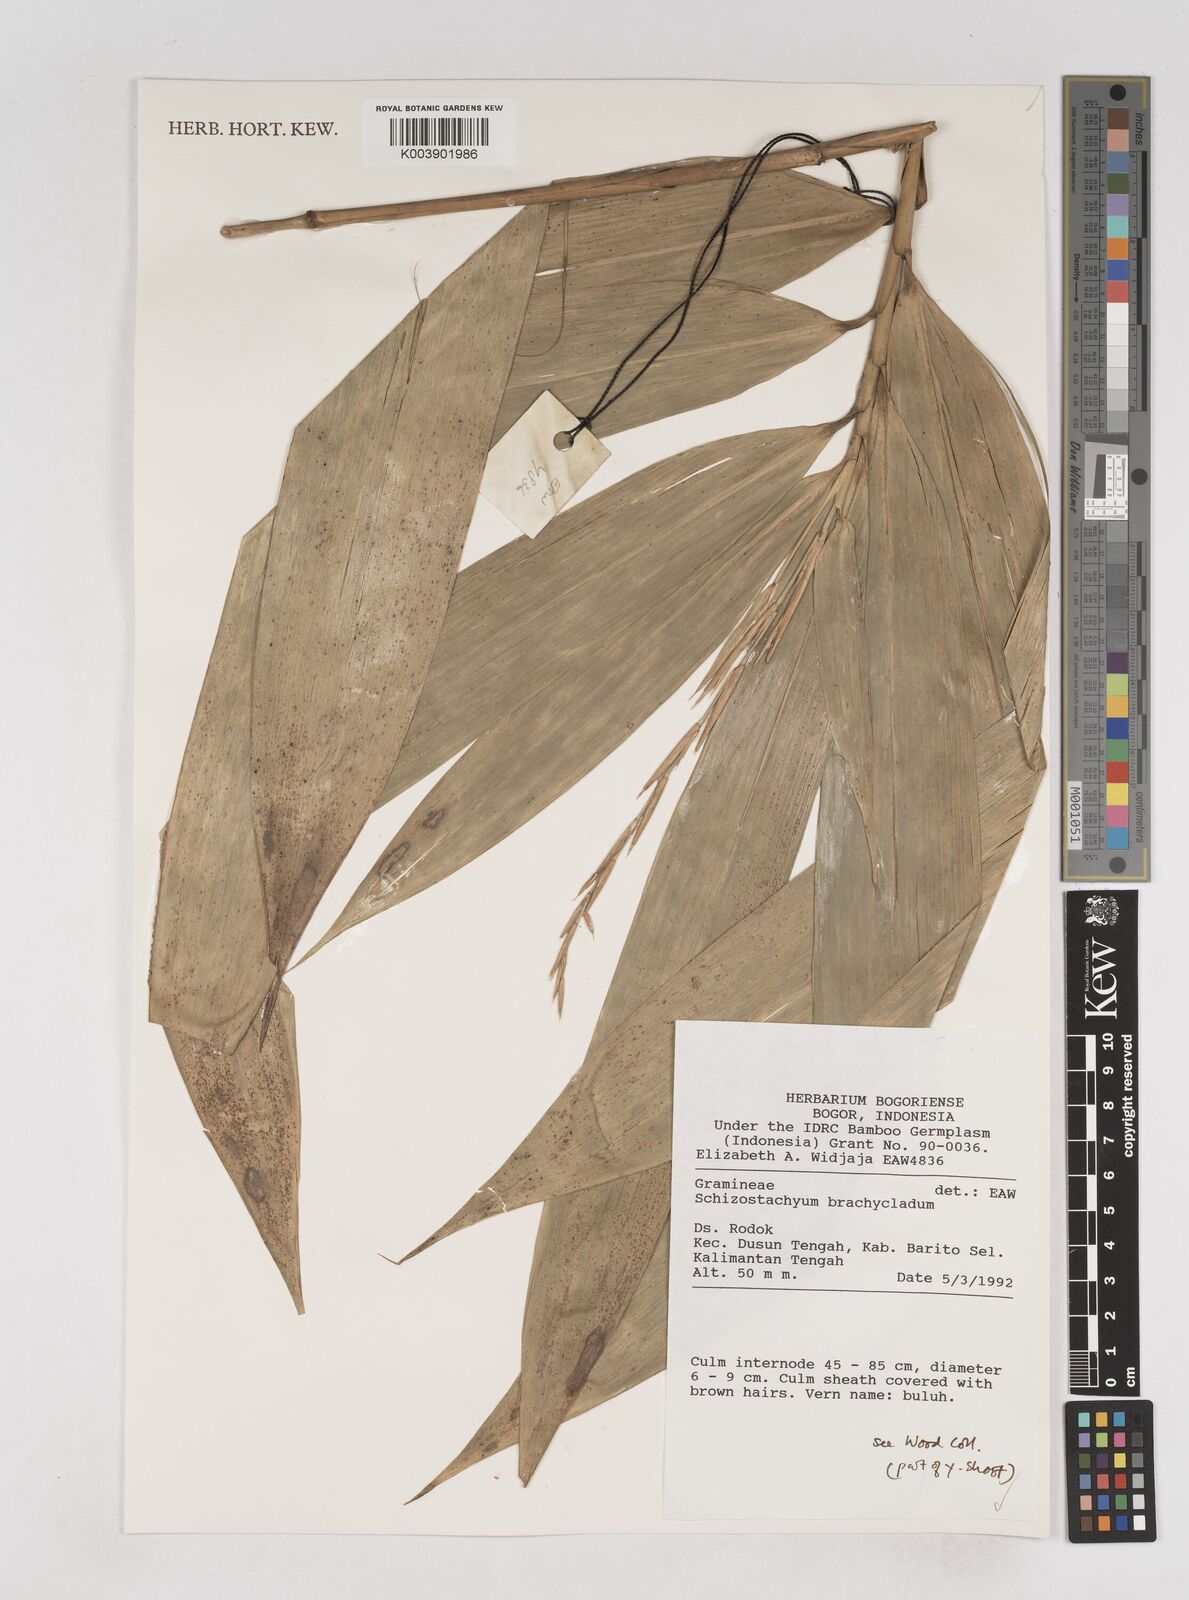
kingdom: Plantae
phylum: Tracheophyta
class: Liliopsida
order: Poales
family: Poaceae
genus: Schizostachyum
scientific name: Schizostachyum
